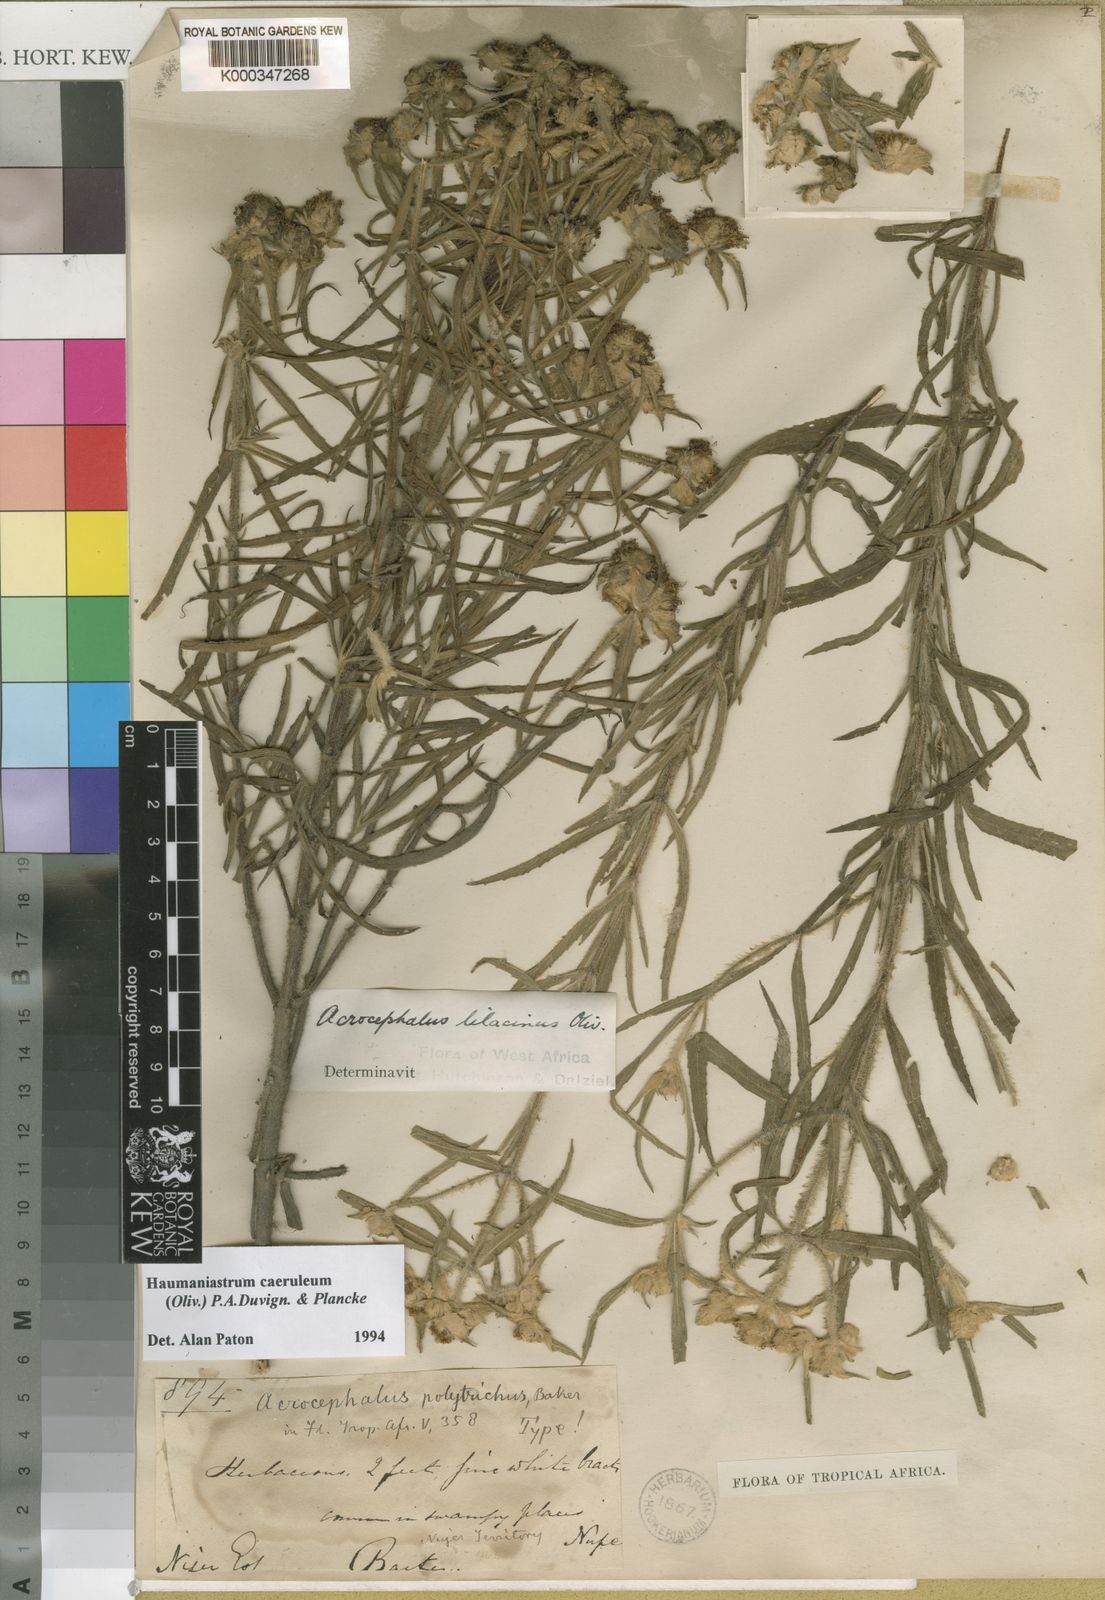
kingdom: Plantae
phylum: Tracheophyta
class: Magnoliopsida
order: Lamiales
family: Lamiaceae
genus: Haumaniastrum
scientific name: Haumaniastrum caeruleum
